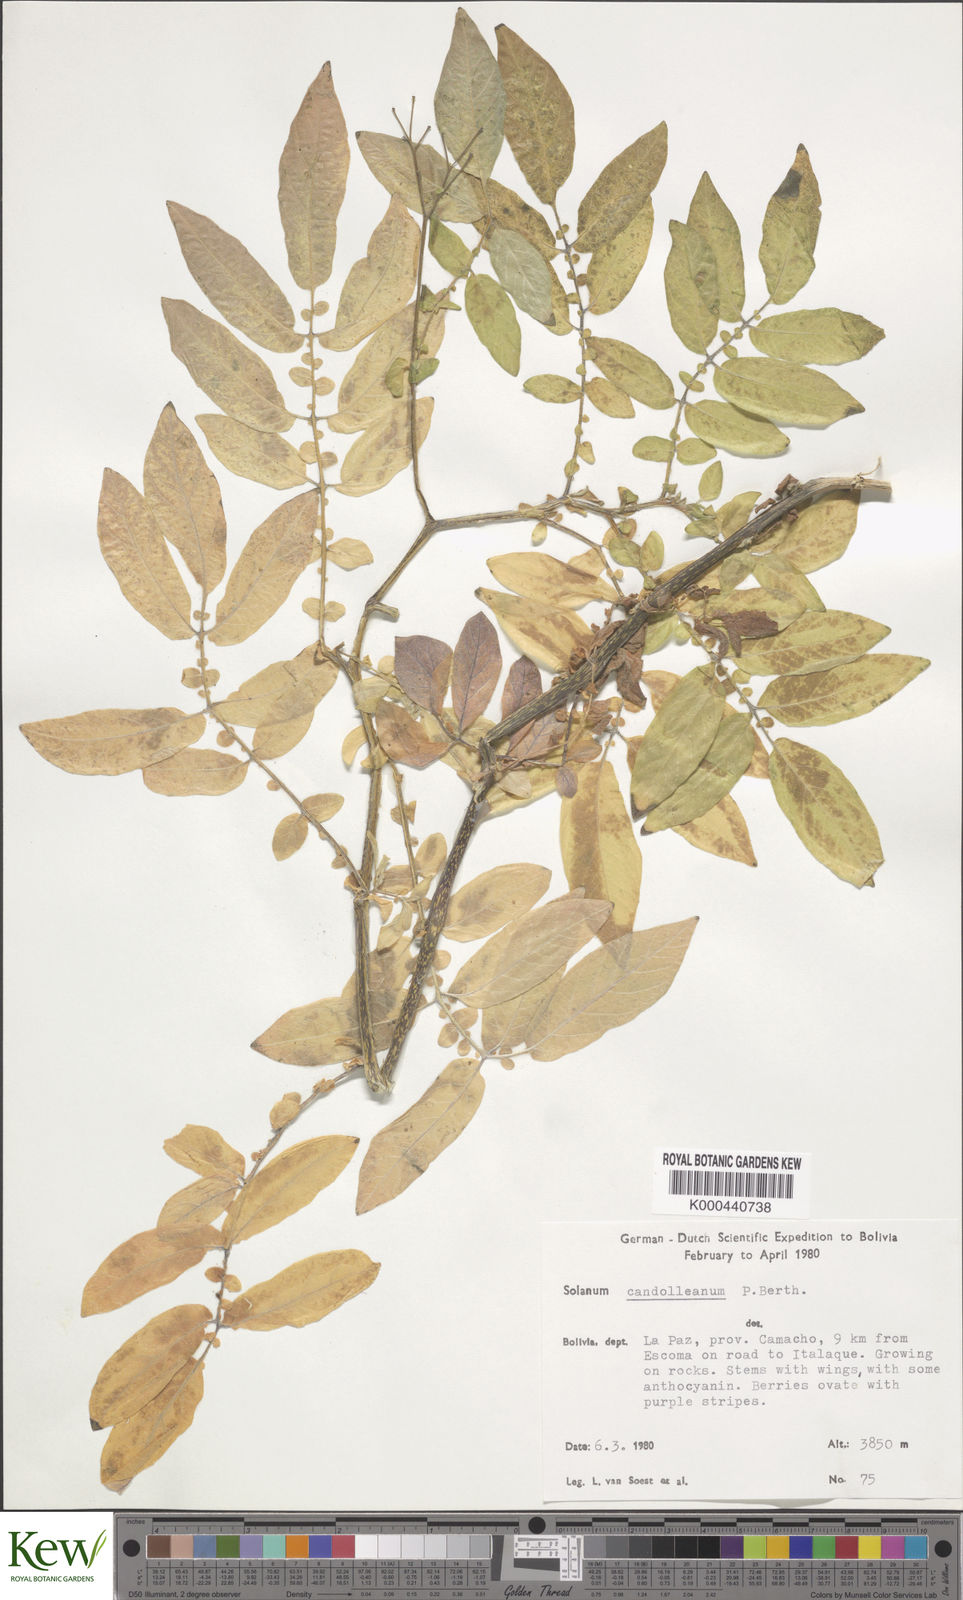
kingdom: Plantae
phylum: Tracheophyta
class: Magnoliopsida
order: Solanales
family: Solanaceae
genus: Solanum
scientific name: Solanum brevicaule
